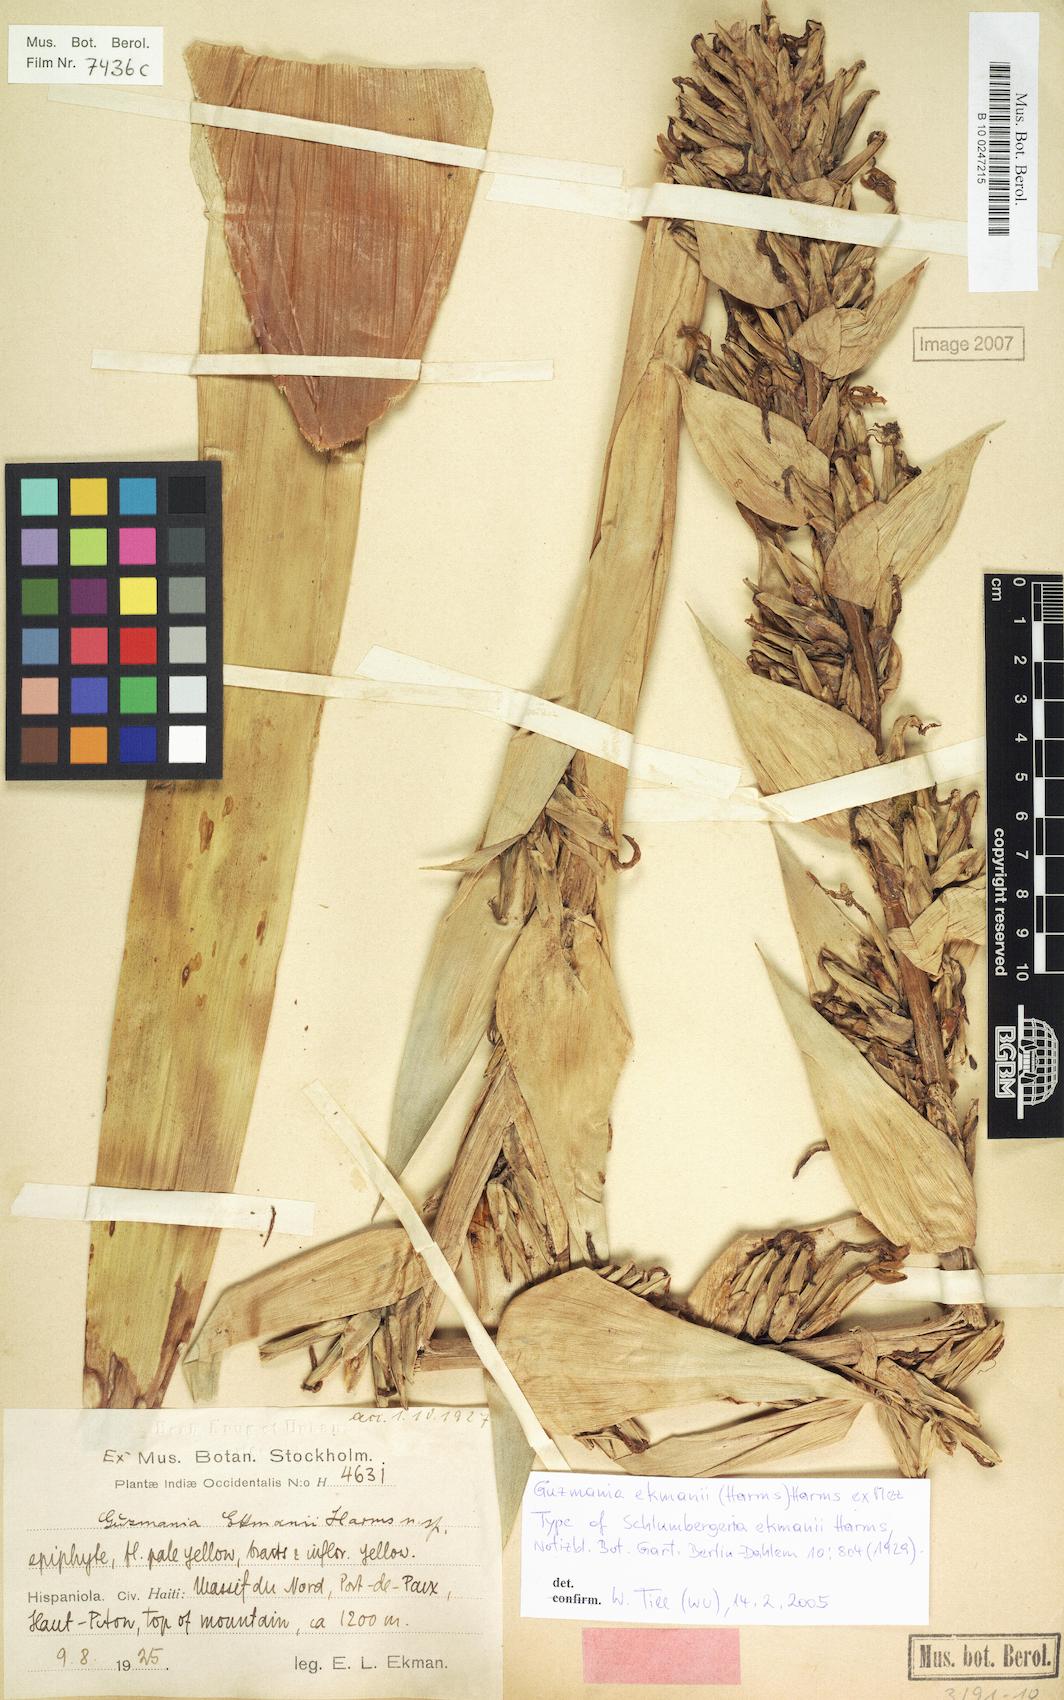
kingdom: Plantae
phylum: Tracheophyta
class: Liliopsida
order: Poales
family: Bromeliaceae
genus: Guzmania
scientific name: Guzmania ekmanii
